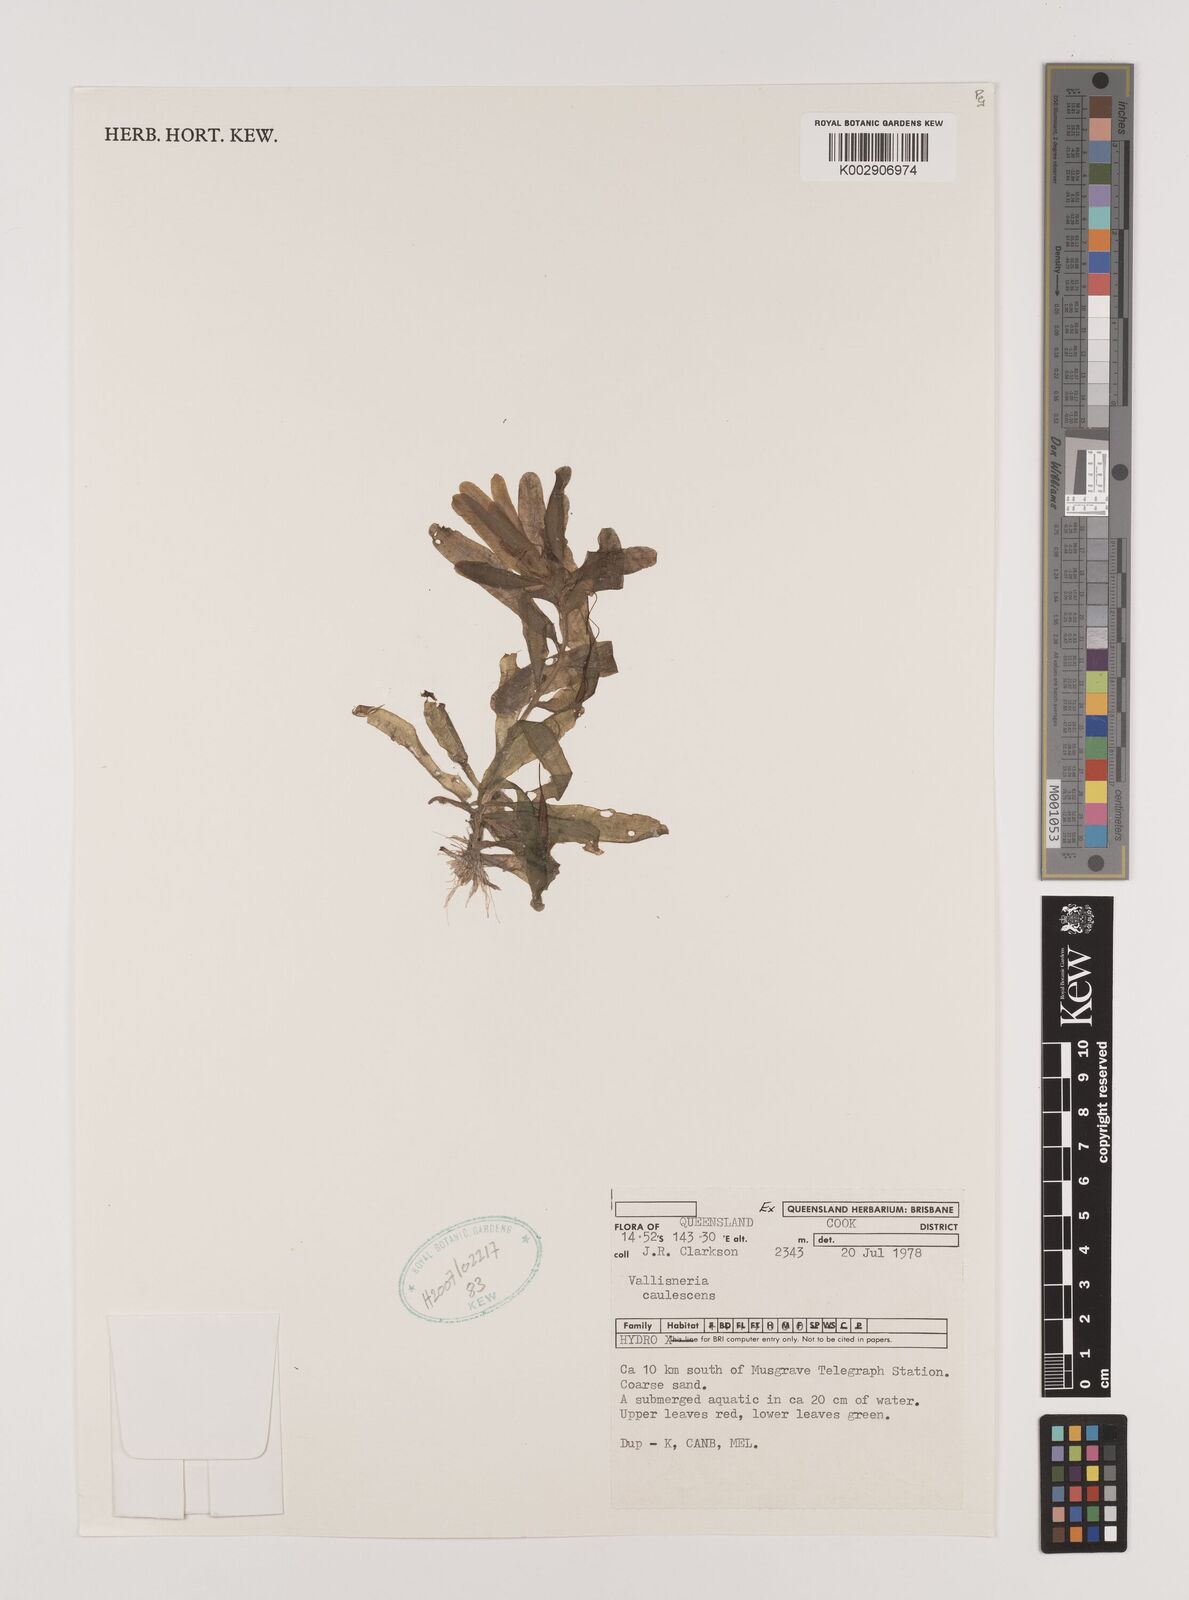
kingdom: Plantae
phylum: Tracheophyta
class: Liliopsida
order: Alismatales
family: Hydrocharitaceae
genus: Vallisneria
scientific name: Vallisneria caulescens
